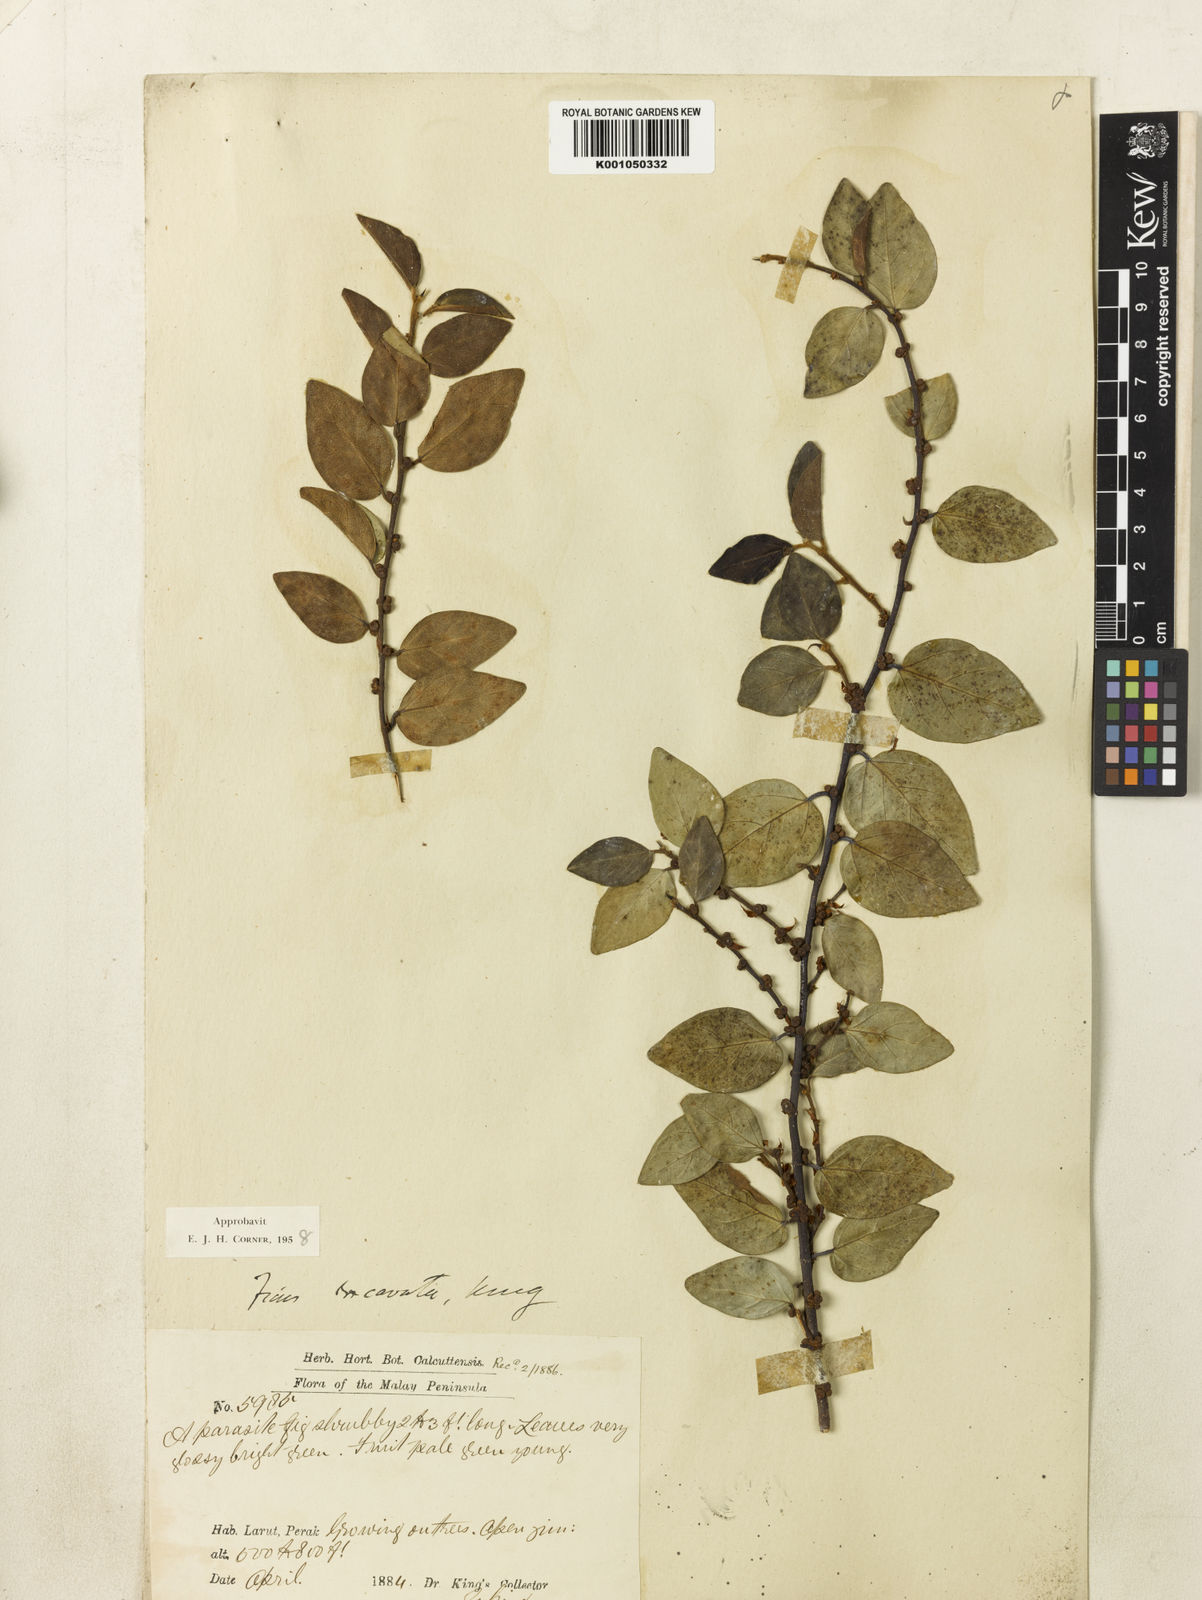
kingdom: Plantae
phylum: Tracheophyta
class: Magnoliopsida
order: Rosales
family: Moraceae
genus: Ficus
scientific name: Ficus excavata
